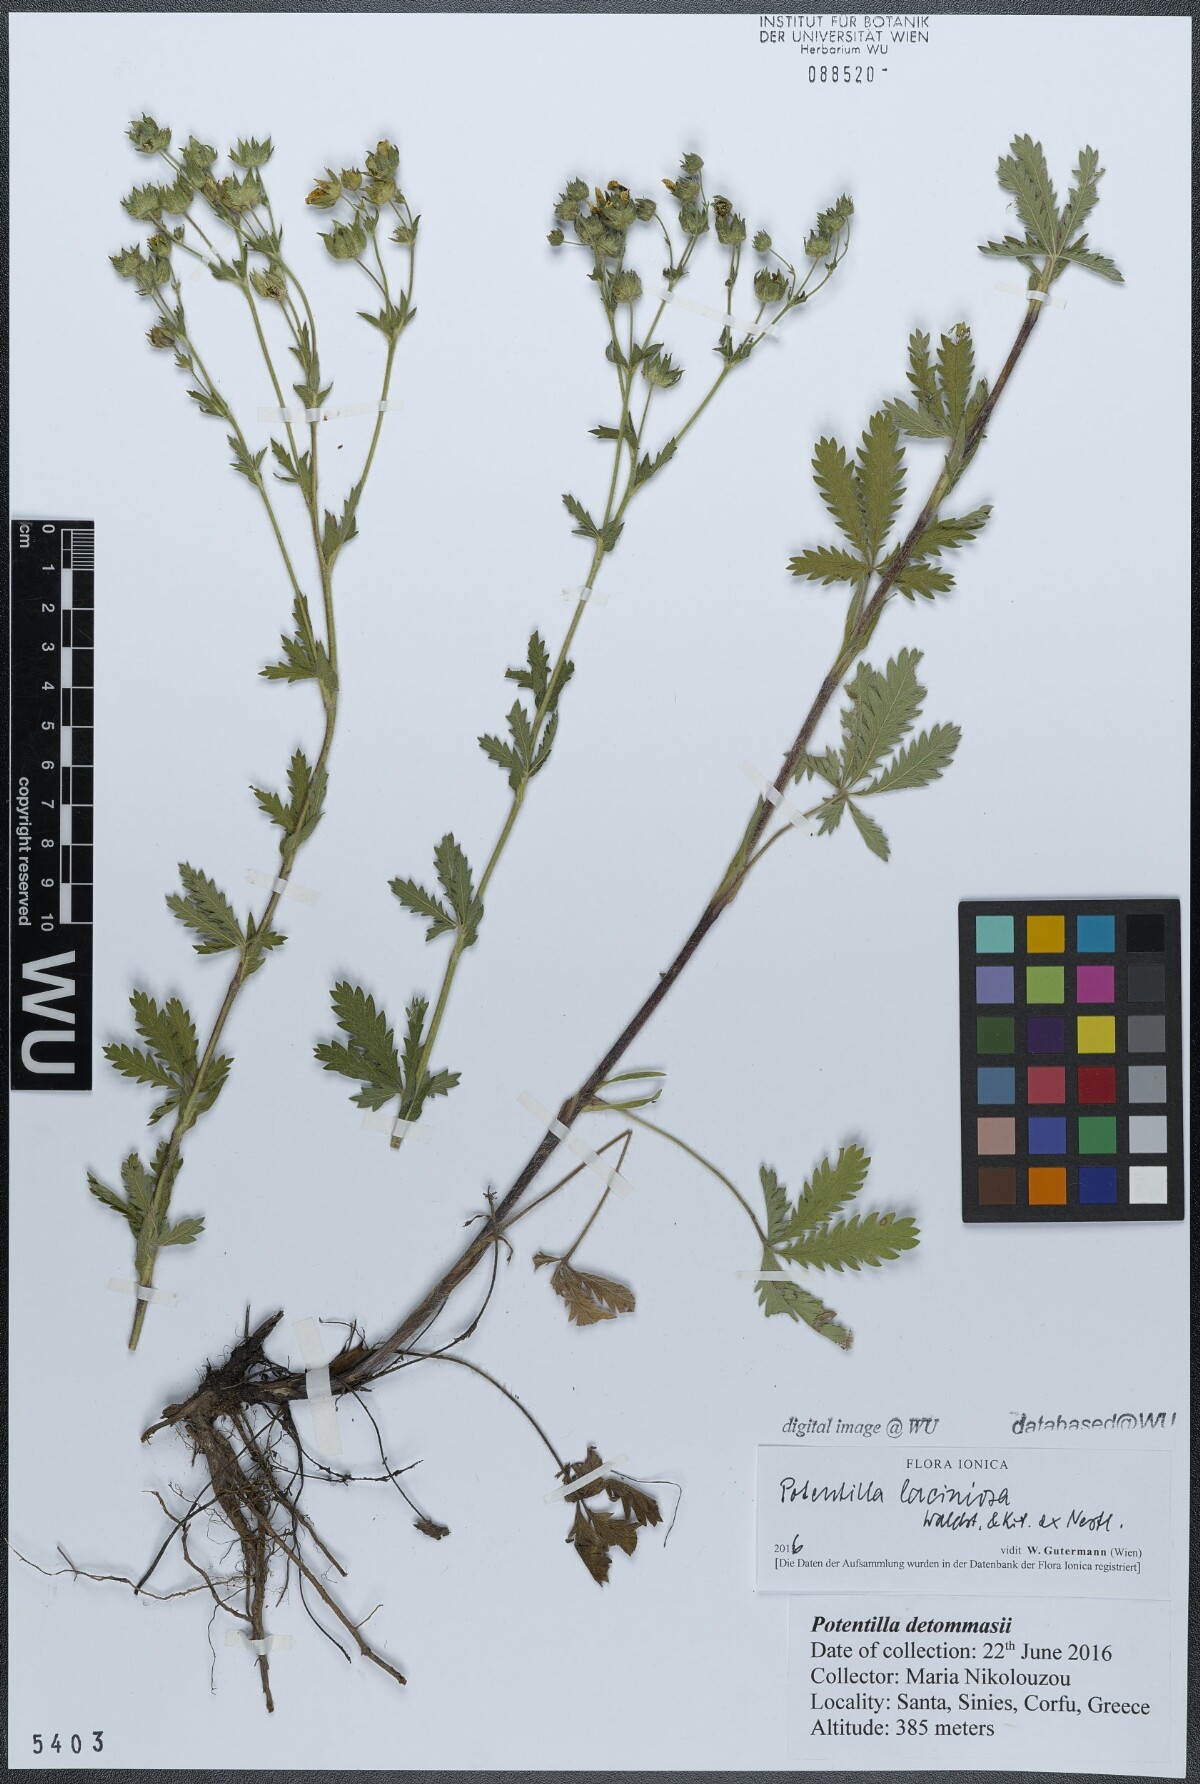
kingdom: Plantae
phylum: Tracheophyta
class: Magnoliopsida
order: Rosales
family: Rosaceae
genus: Potentilla
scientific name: Potentilla recta
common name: Sulphur cinquefoil
